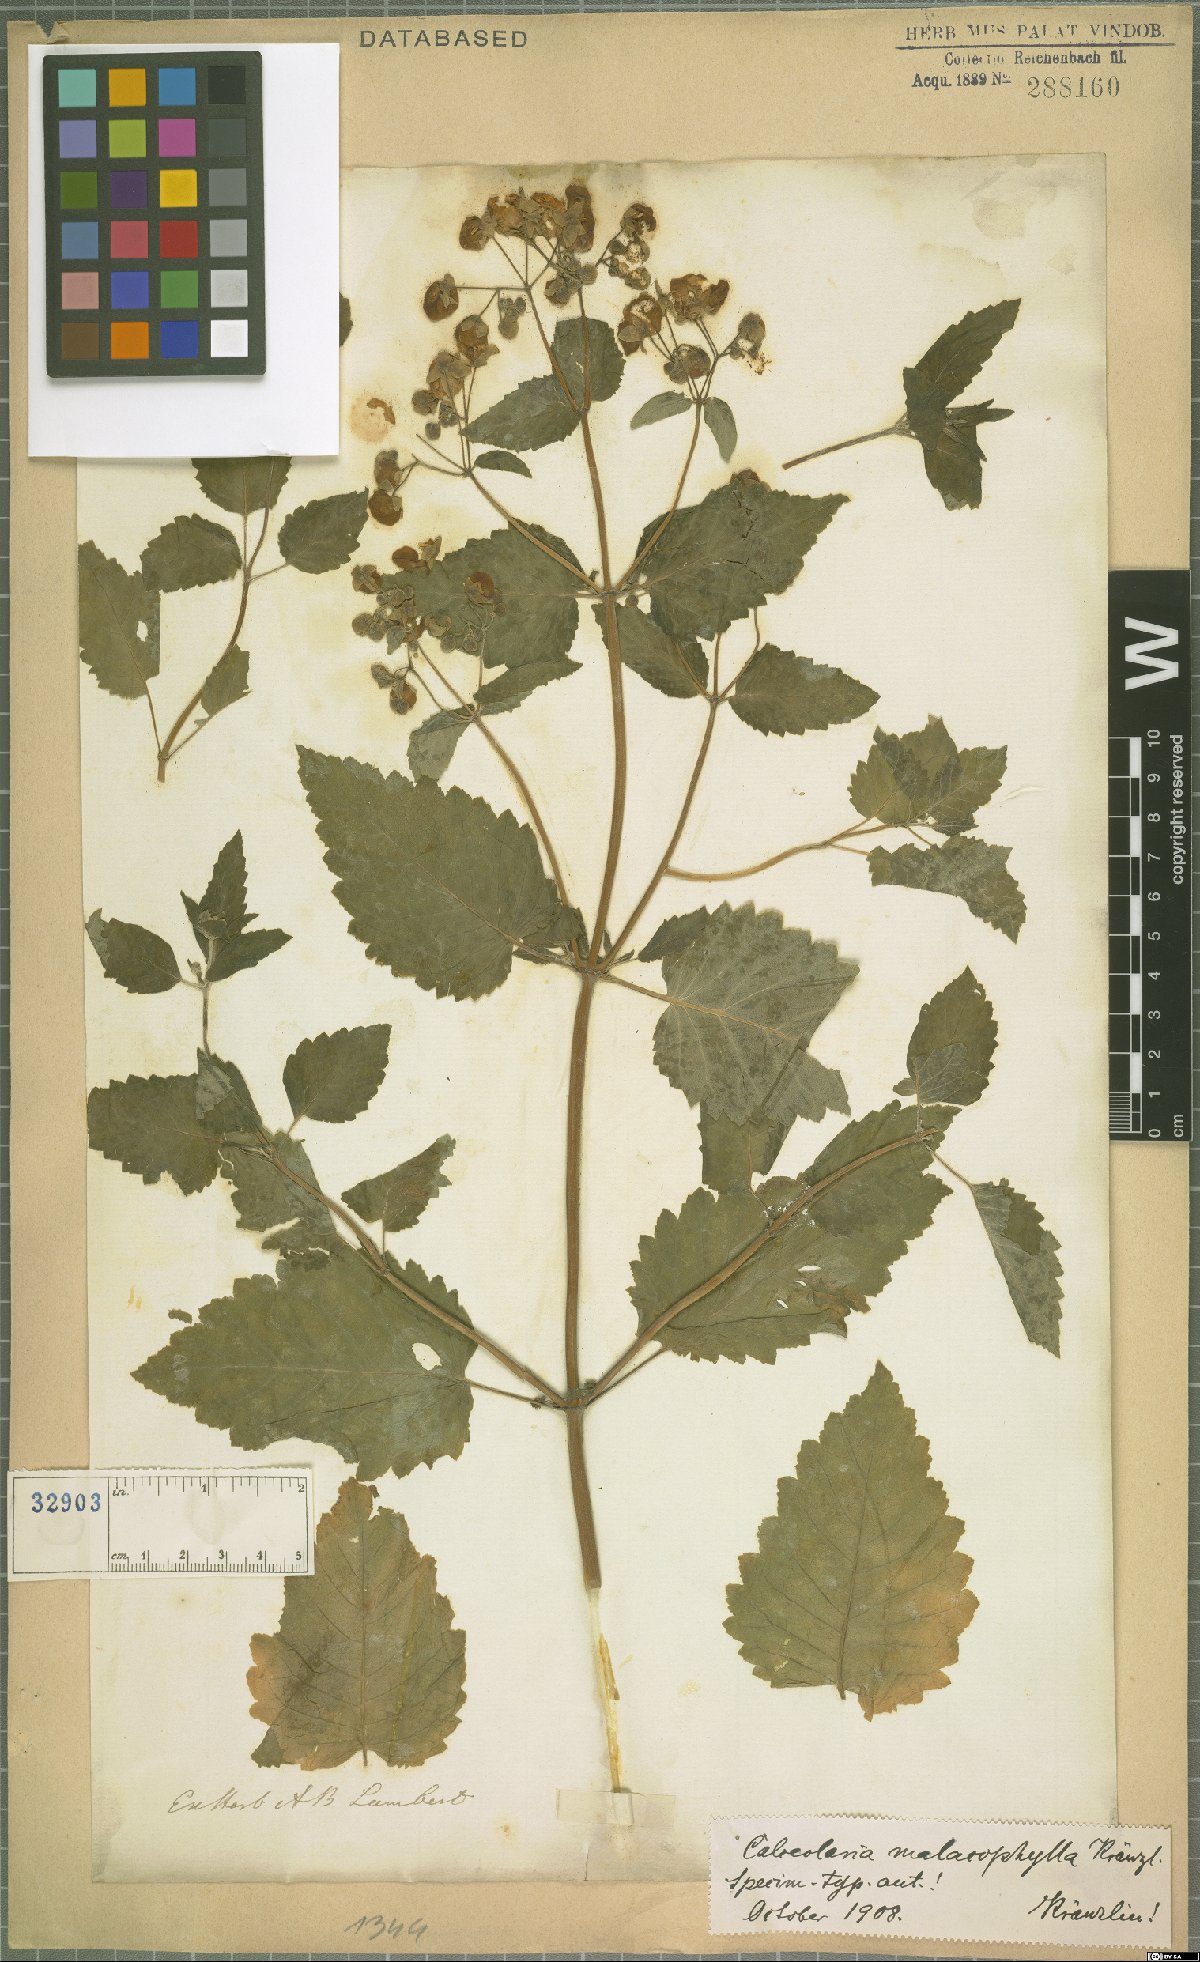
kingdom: Plantae
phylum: Tracheophyta
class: Magnoliopsida
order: Lamiales
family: Calceolariaceae
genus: Calceolaria
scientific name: Calceolaria bicolor
